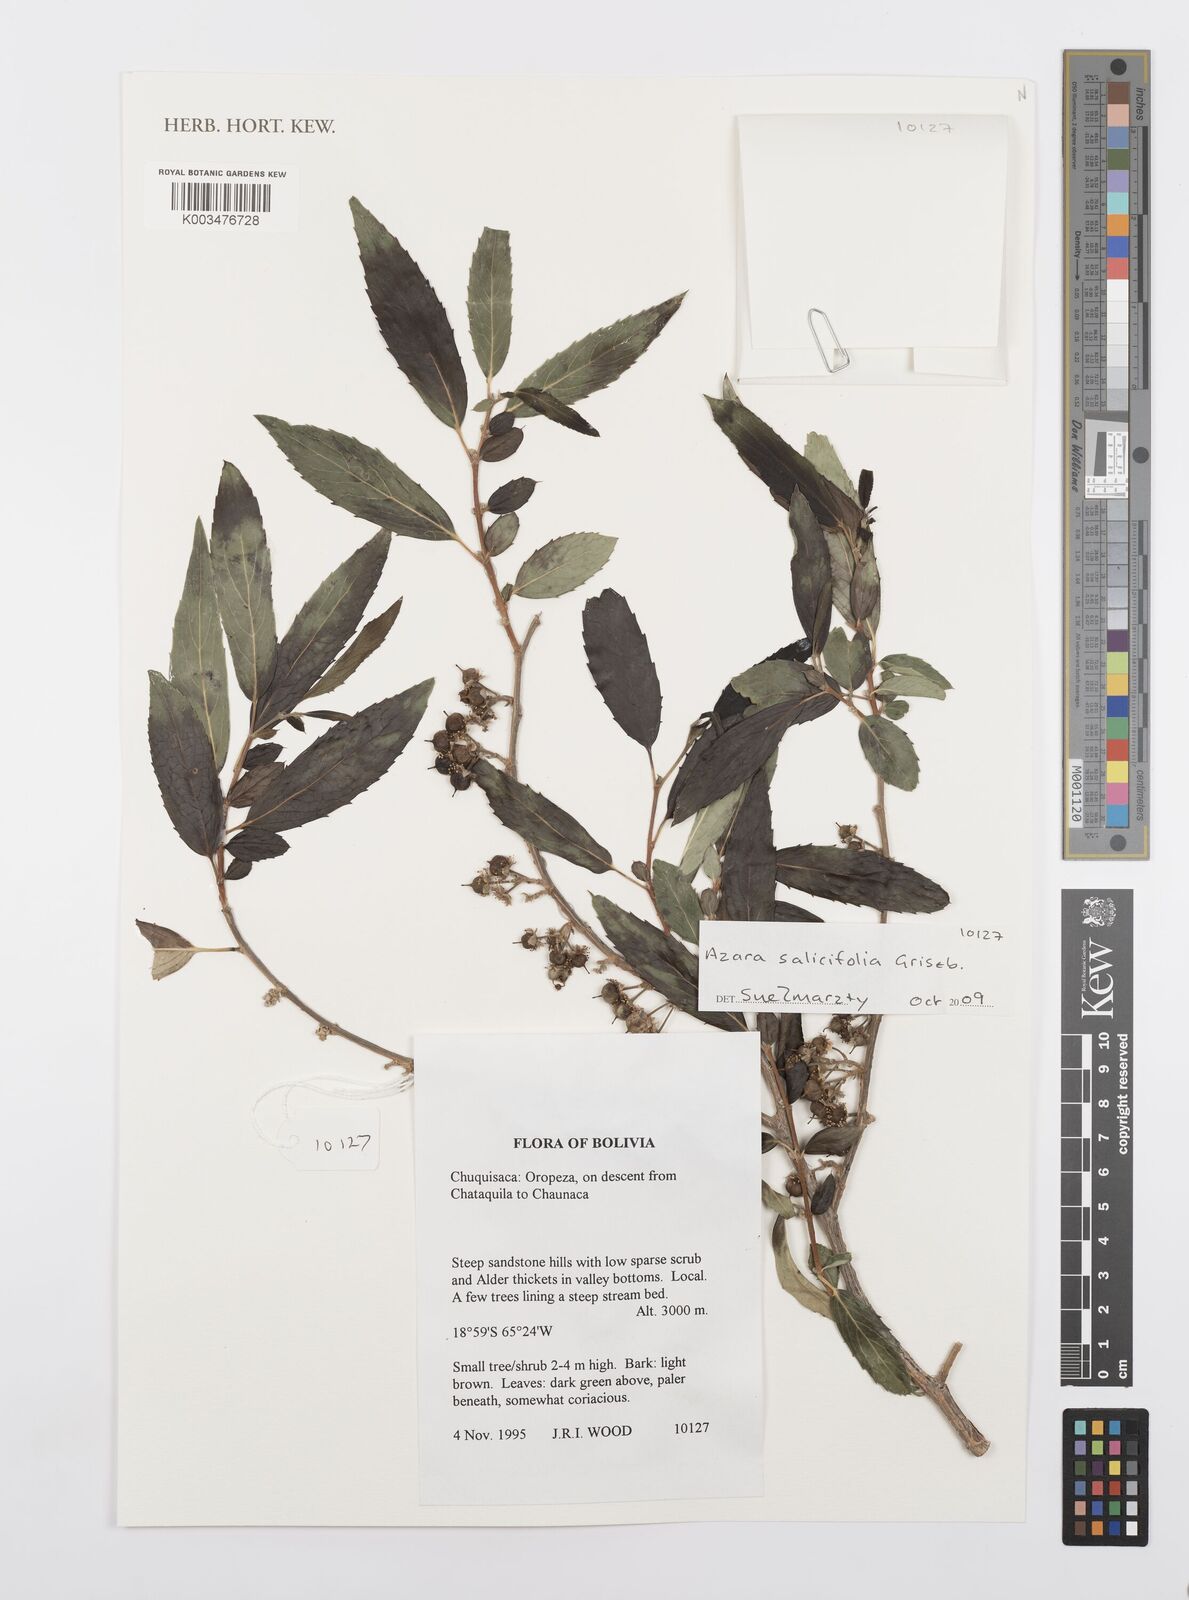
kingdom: Plantae
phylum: Tracheophyta
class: Magnoliopsida
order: Malpighiales
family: Salicaceae
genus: Azara
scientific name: Azara salicifolia
